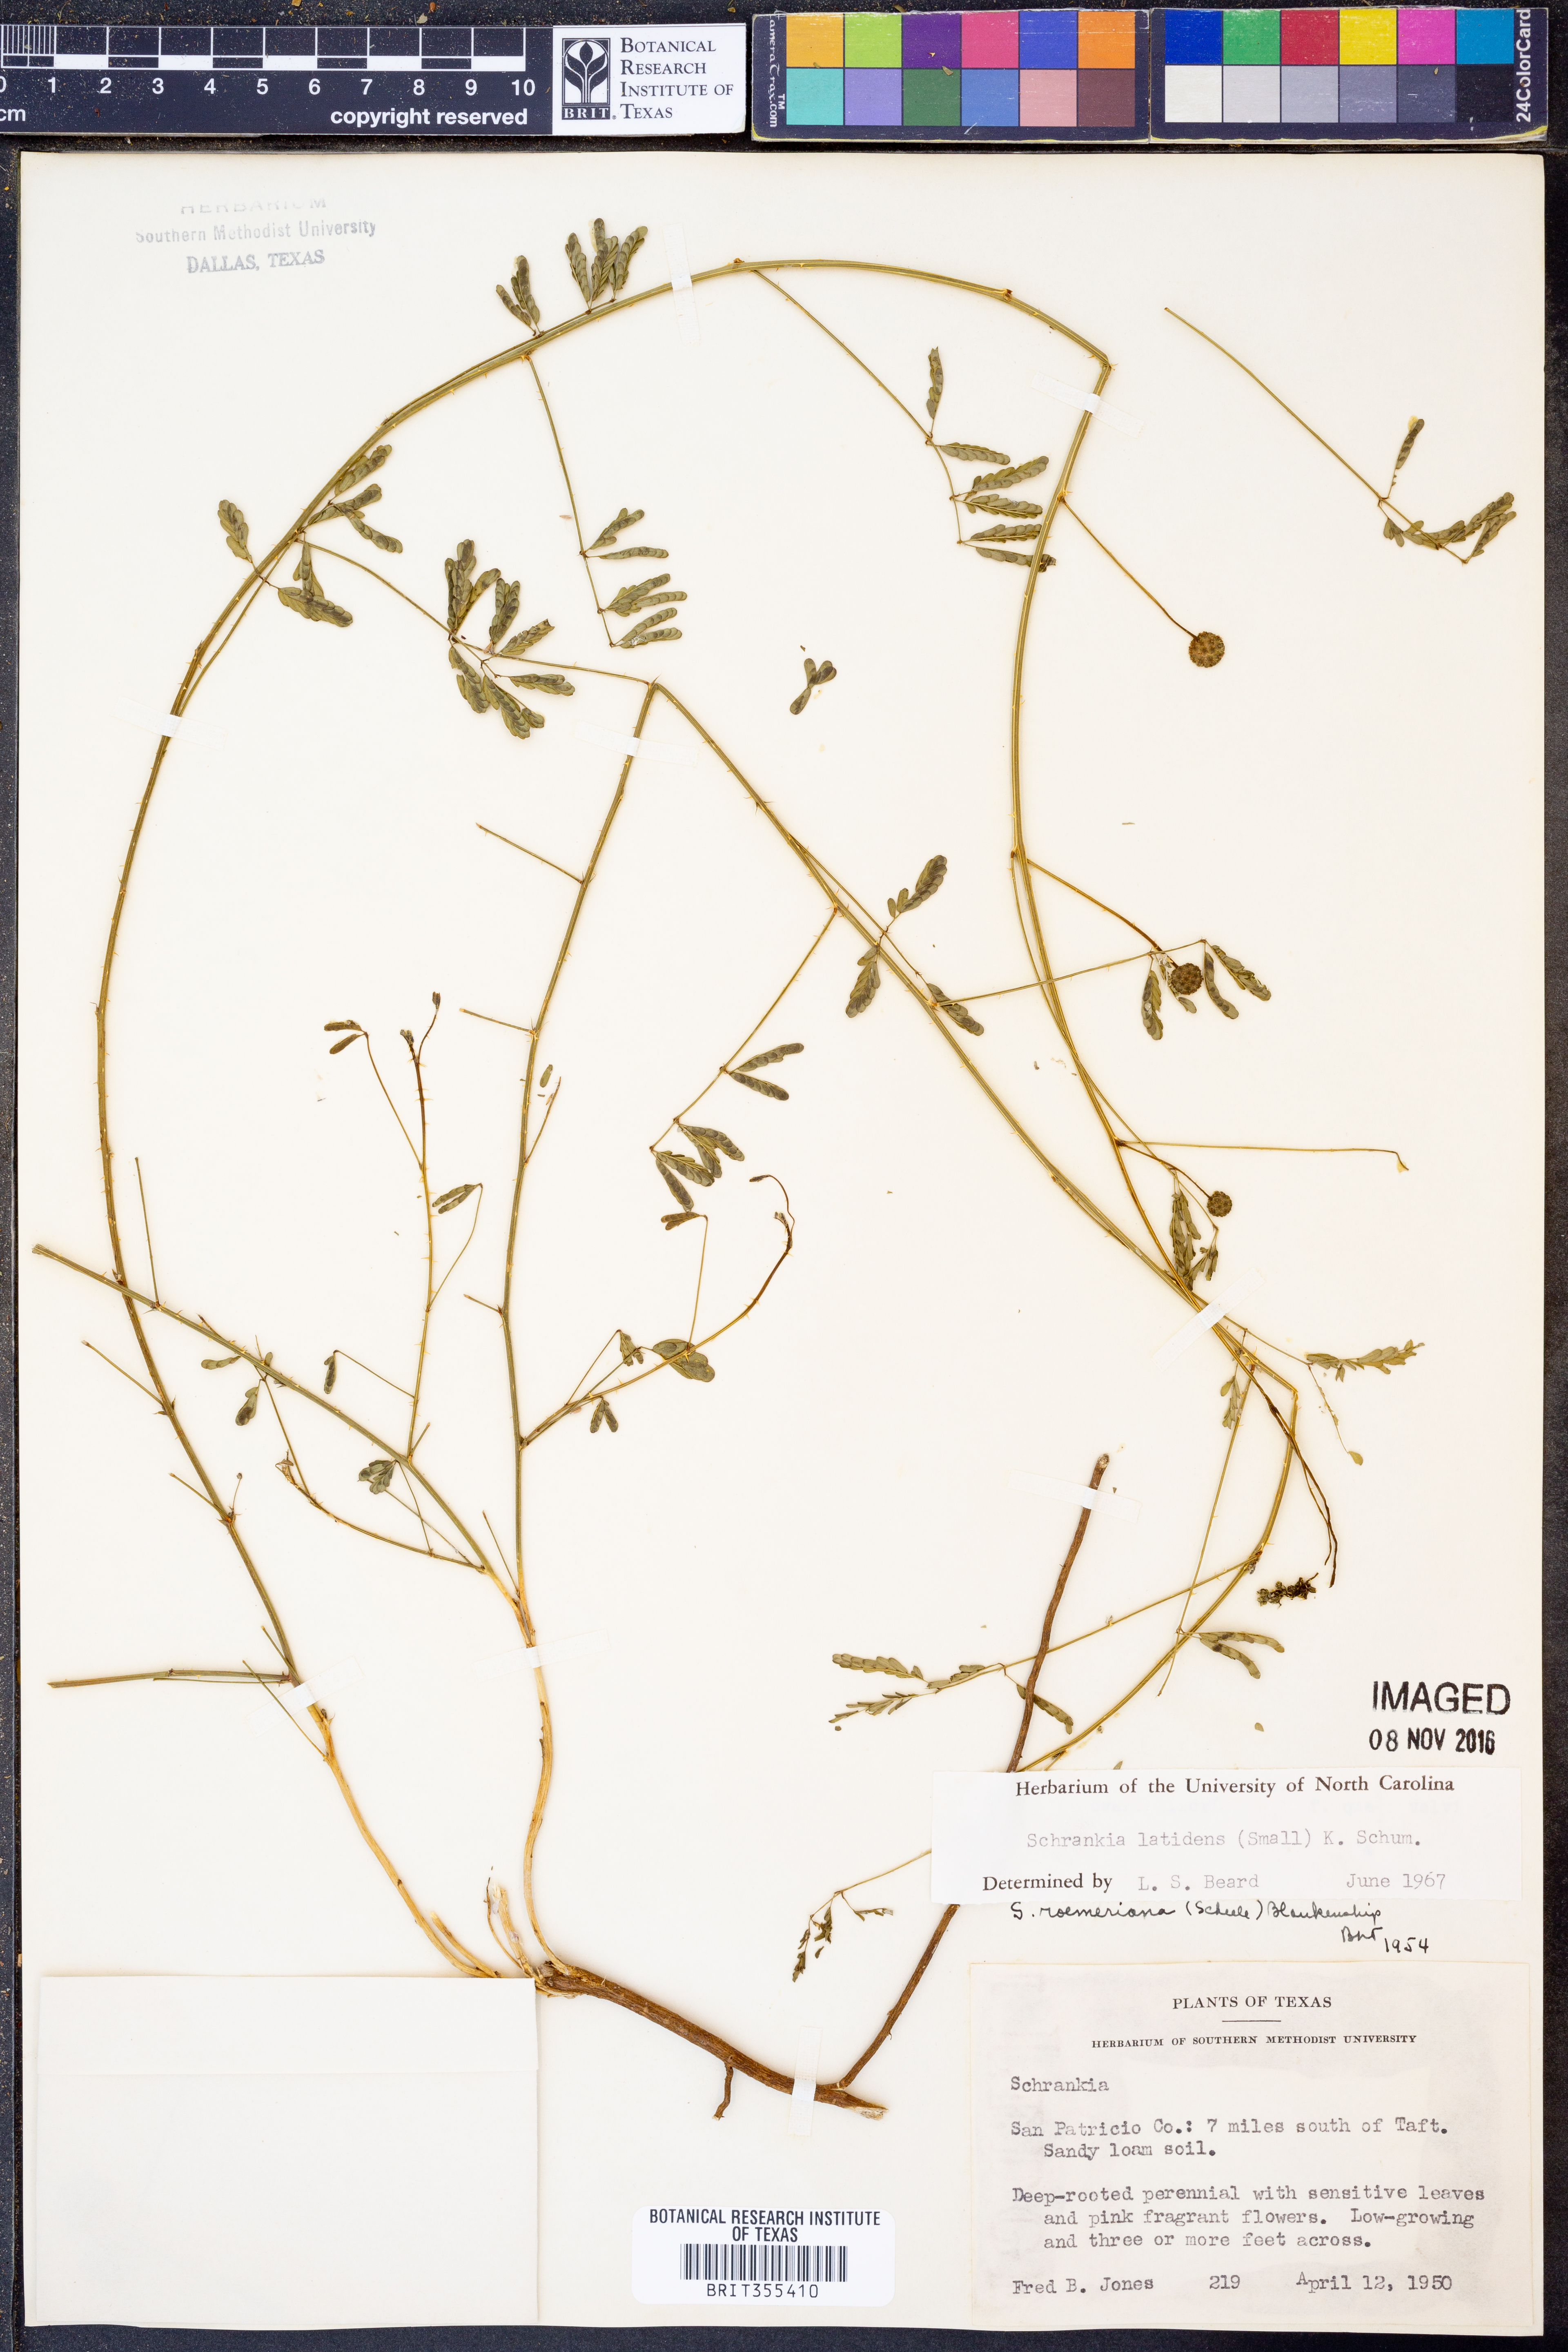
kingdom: Plantae
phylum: Tracheophyta
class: Magnoliopsida
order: Fabales
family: Fabaceae
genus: Mimosa
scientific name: Mimosa quadrivalvis
